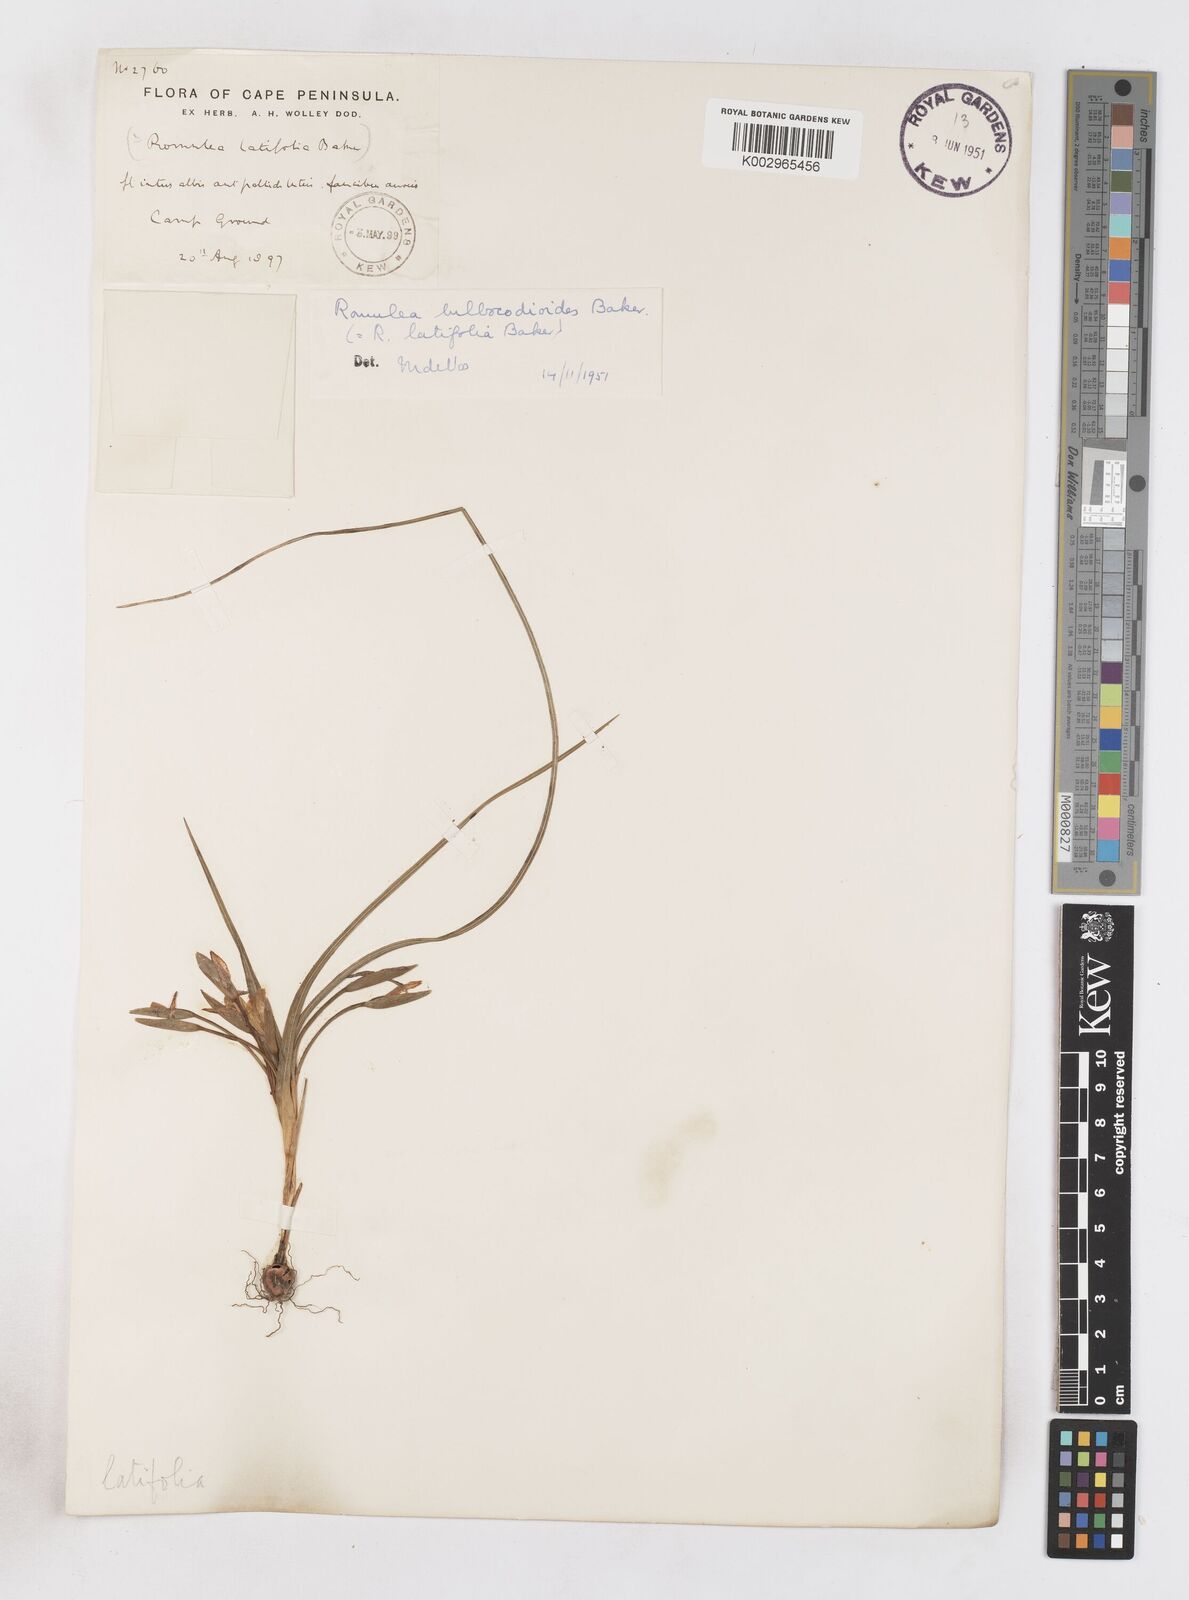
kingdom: Plantae
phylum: Tracheophyta
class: Liliopsida
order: Asparagales
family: Iridaceae
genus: Romulea
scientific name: Romulea flava
